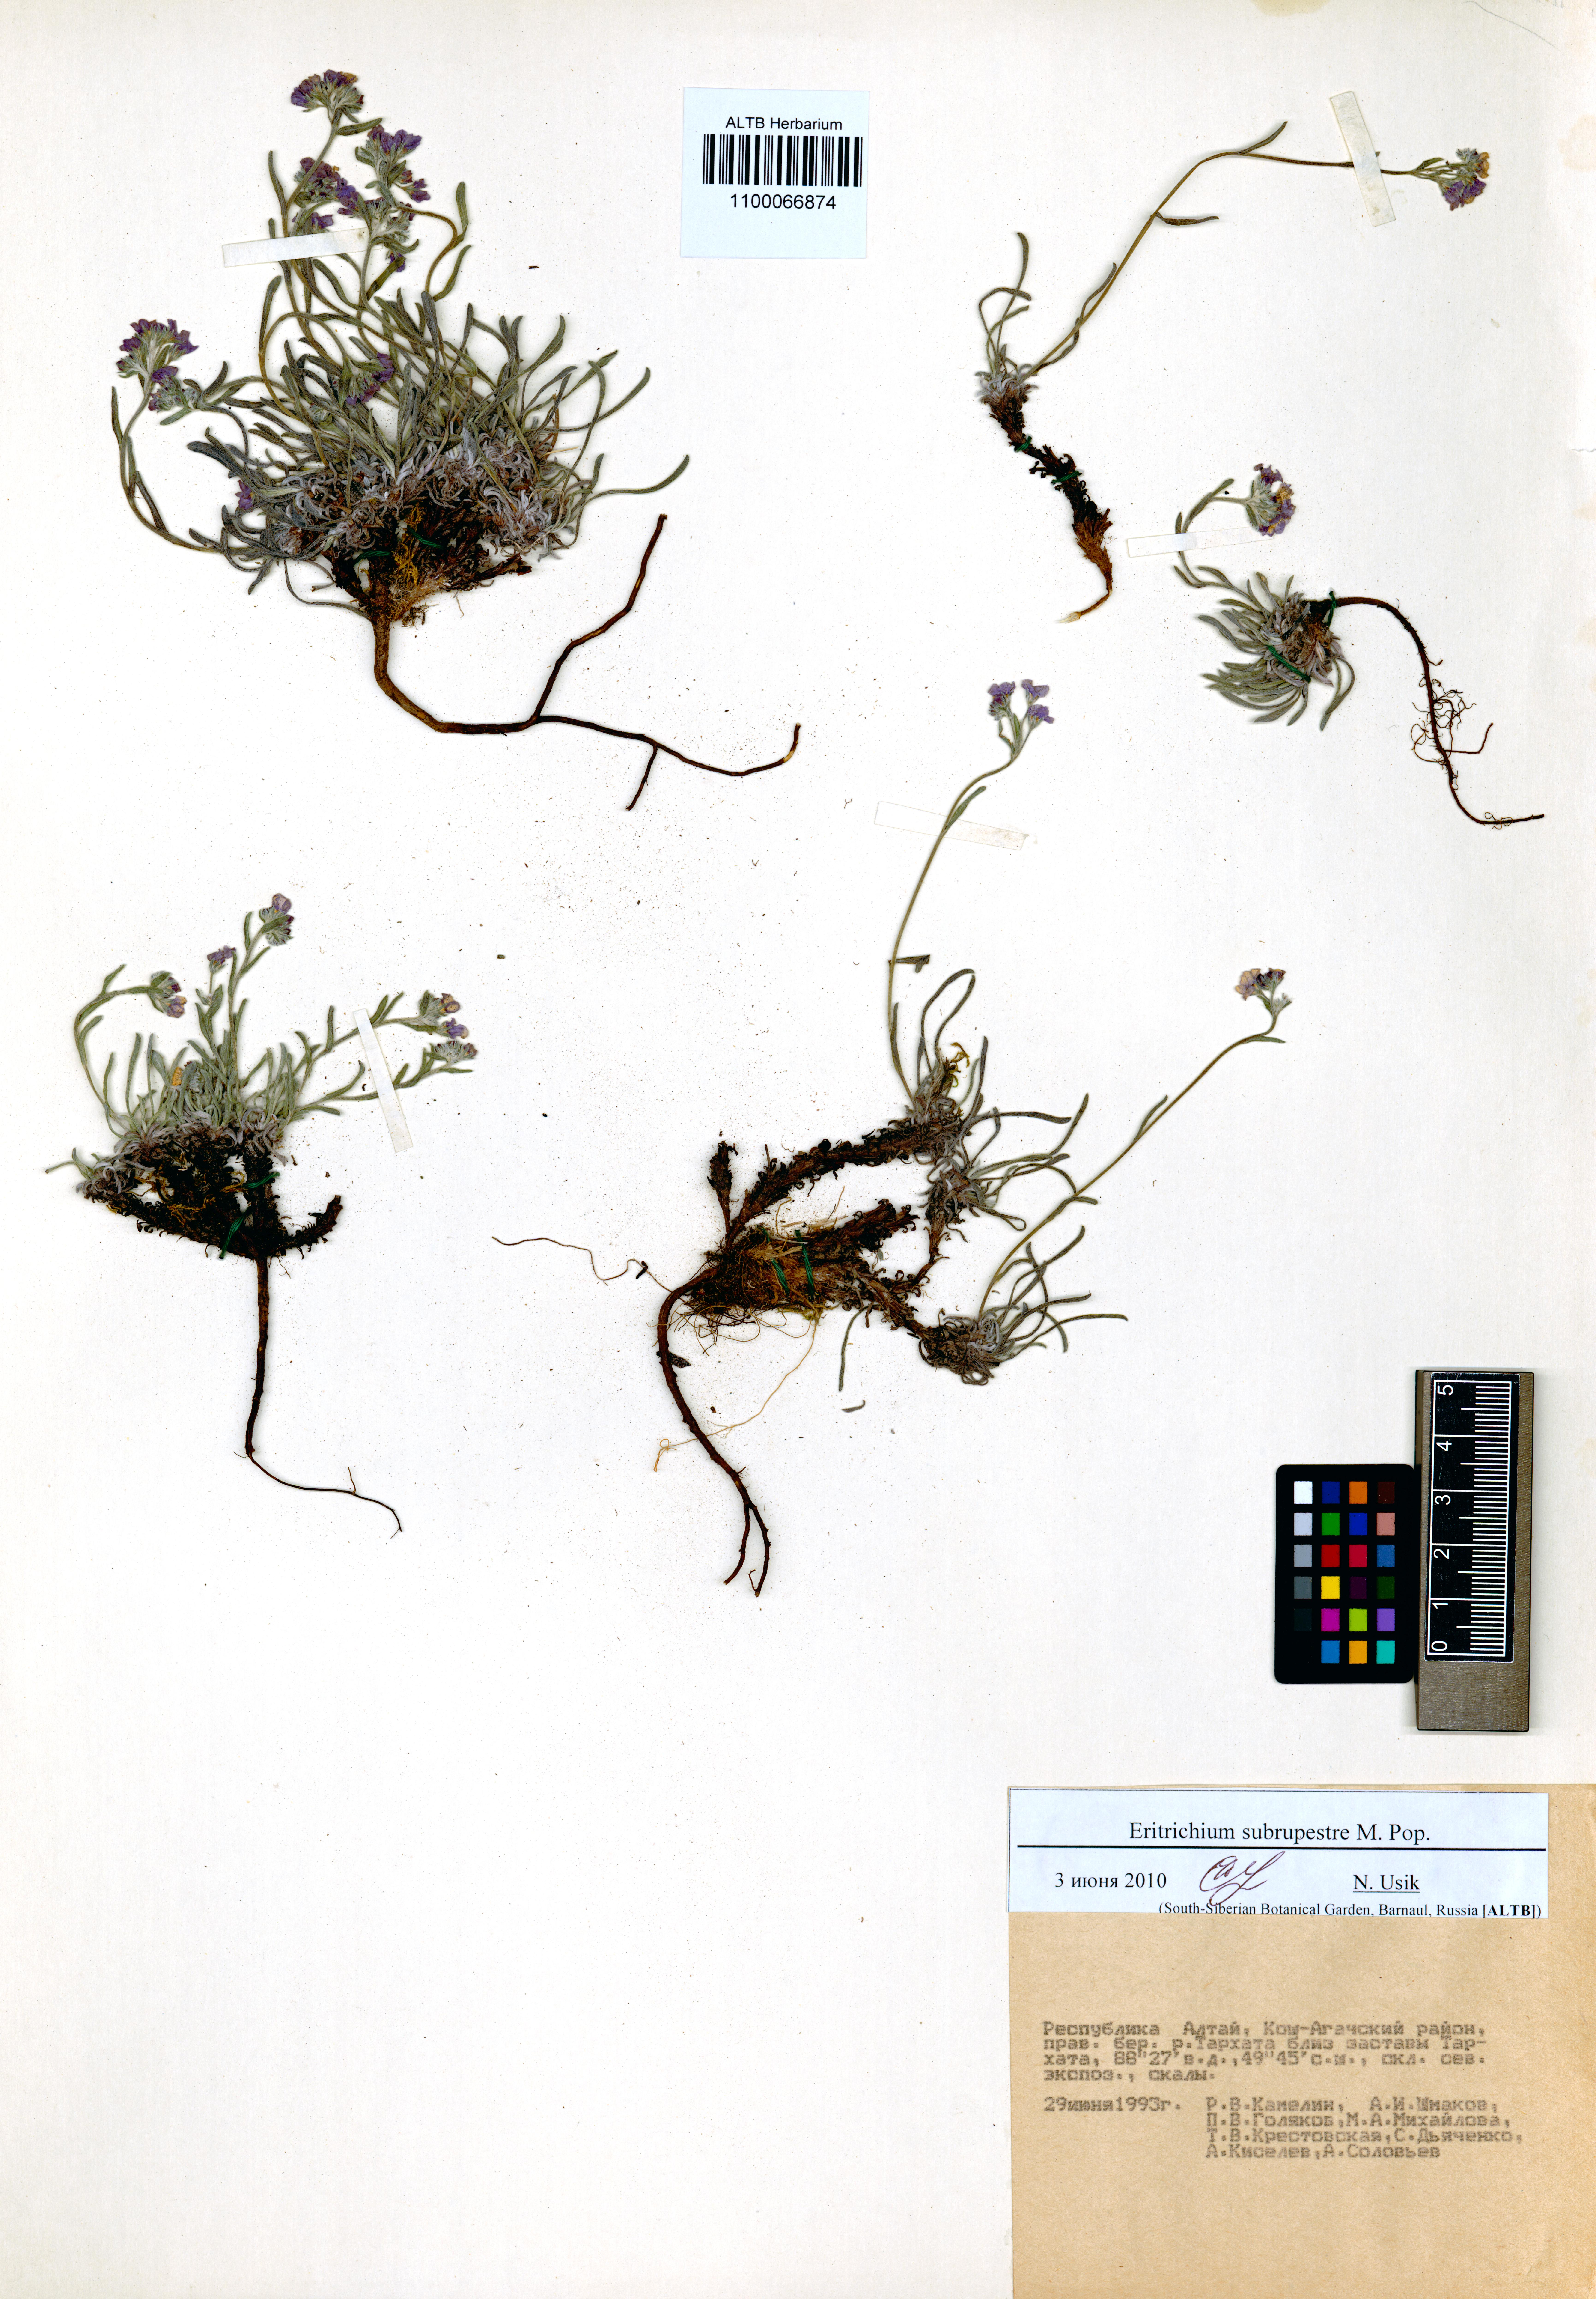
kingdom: Plantae
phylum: Tracheophyta
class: Magnoliopsida
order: Boraginales
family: Boraginaceae
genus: Eritrichium
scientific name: Eritrichium pauciflorum
